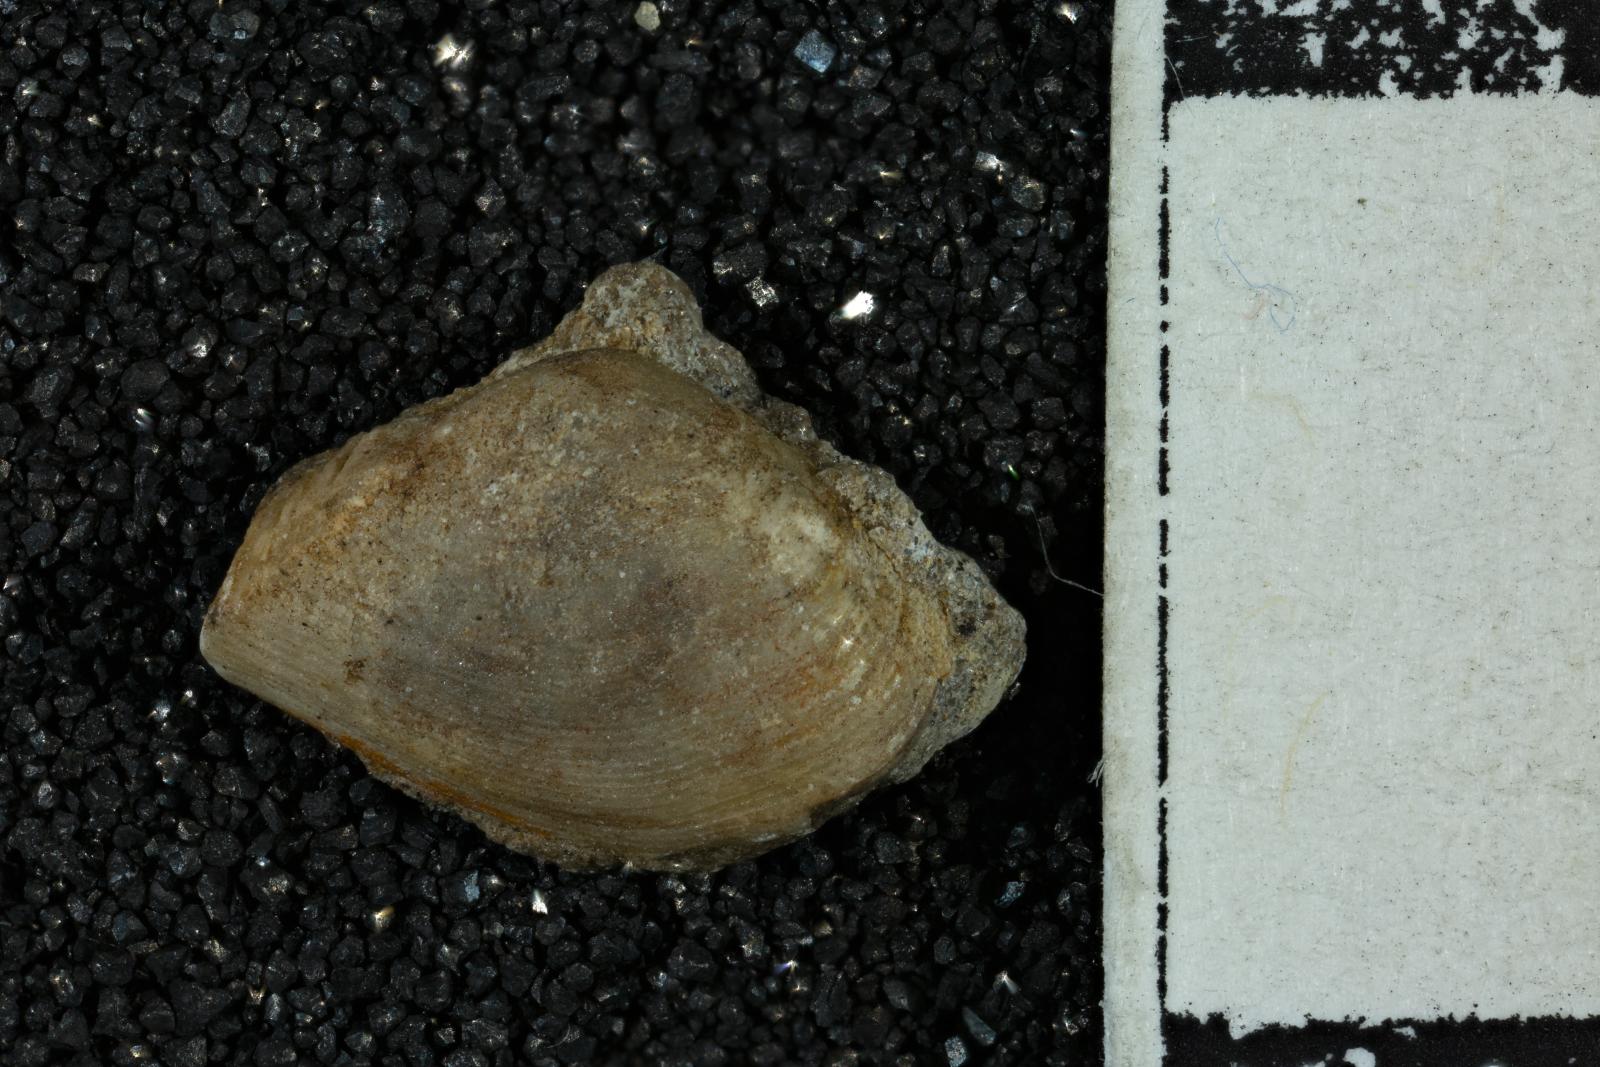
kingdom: Animalia
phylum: Mollusca
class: Bivalvia
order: Myida
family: Corbulidae
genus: Caryocorbula
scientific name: Caryocorbula traskii
